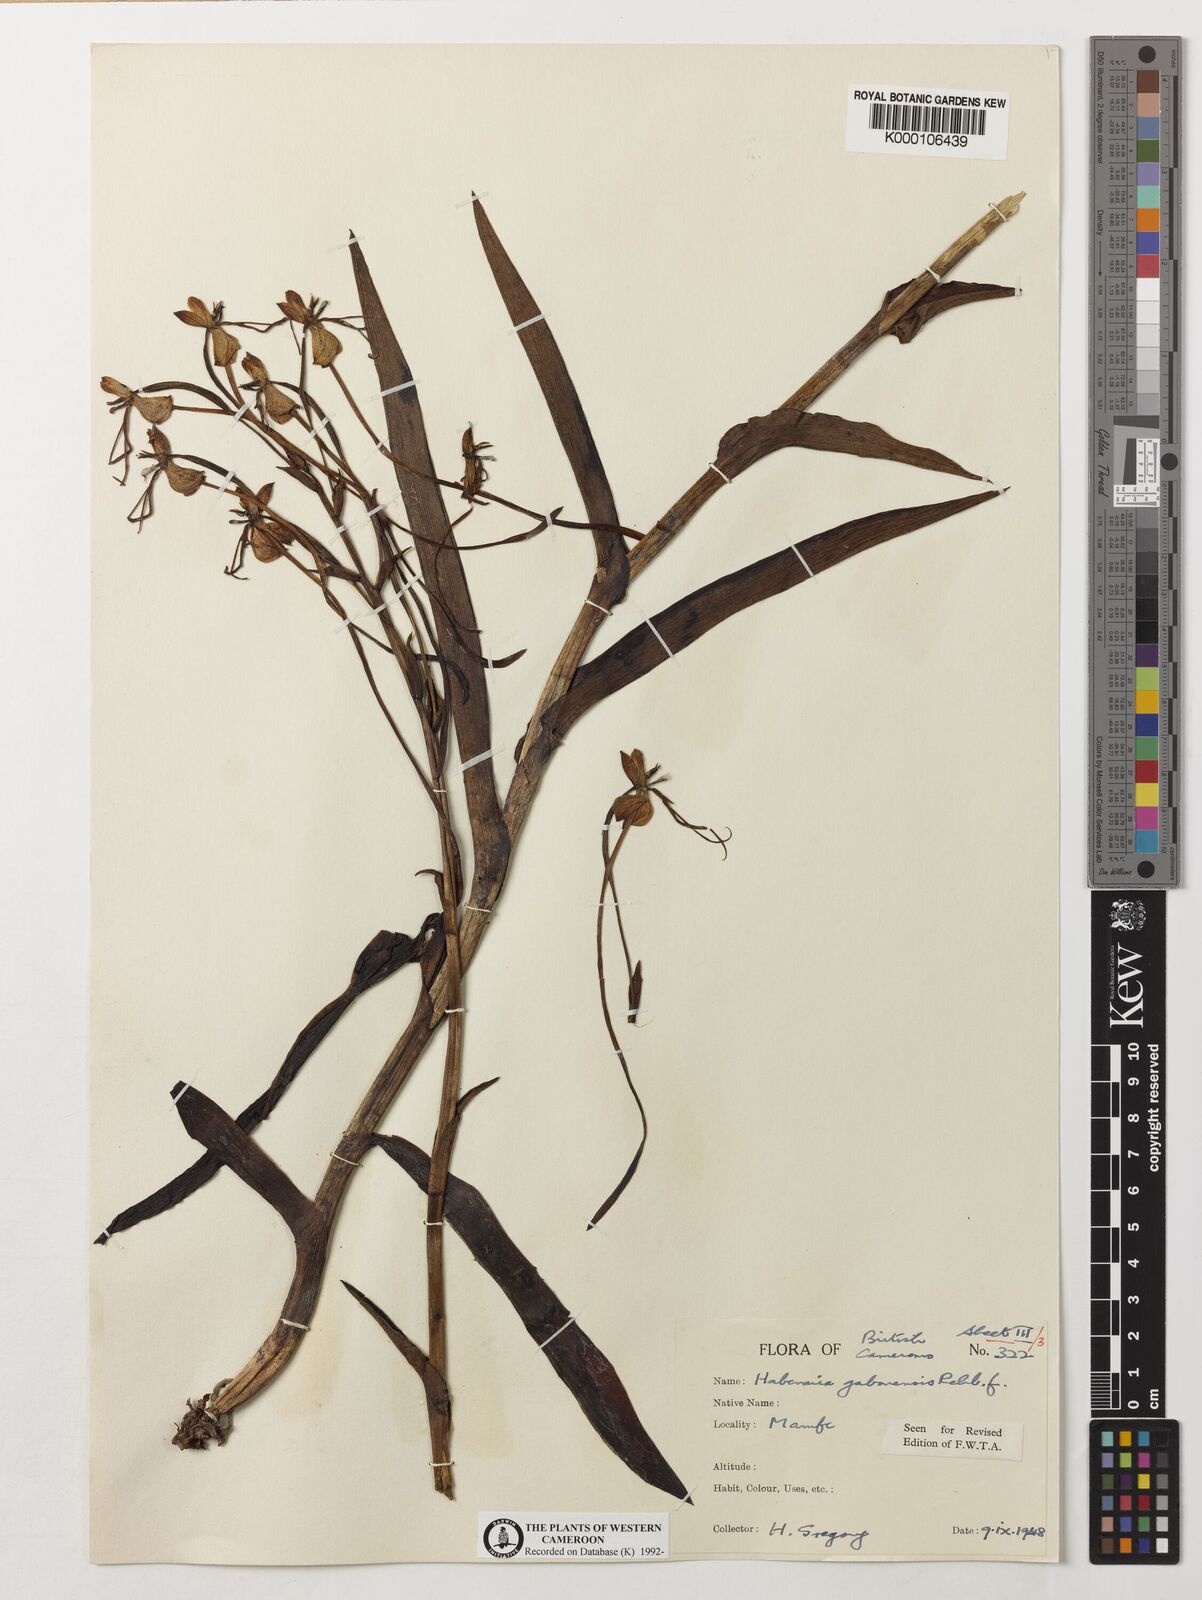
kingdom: Plantae
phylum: Tracheophyta
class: Liliopsida
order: Asparagales
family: Orchidaceae
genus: Habenaria
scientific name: Habenaria procera
